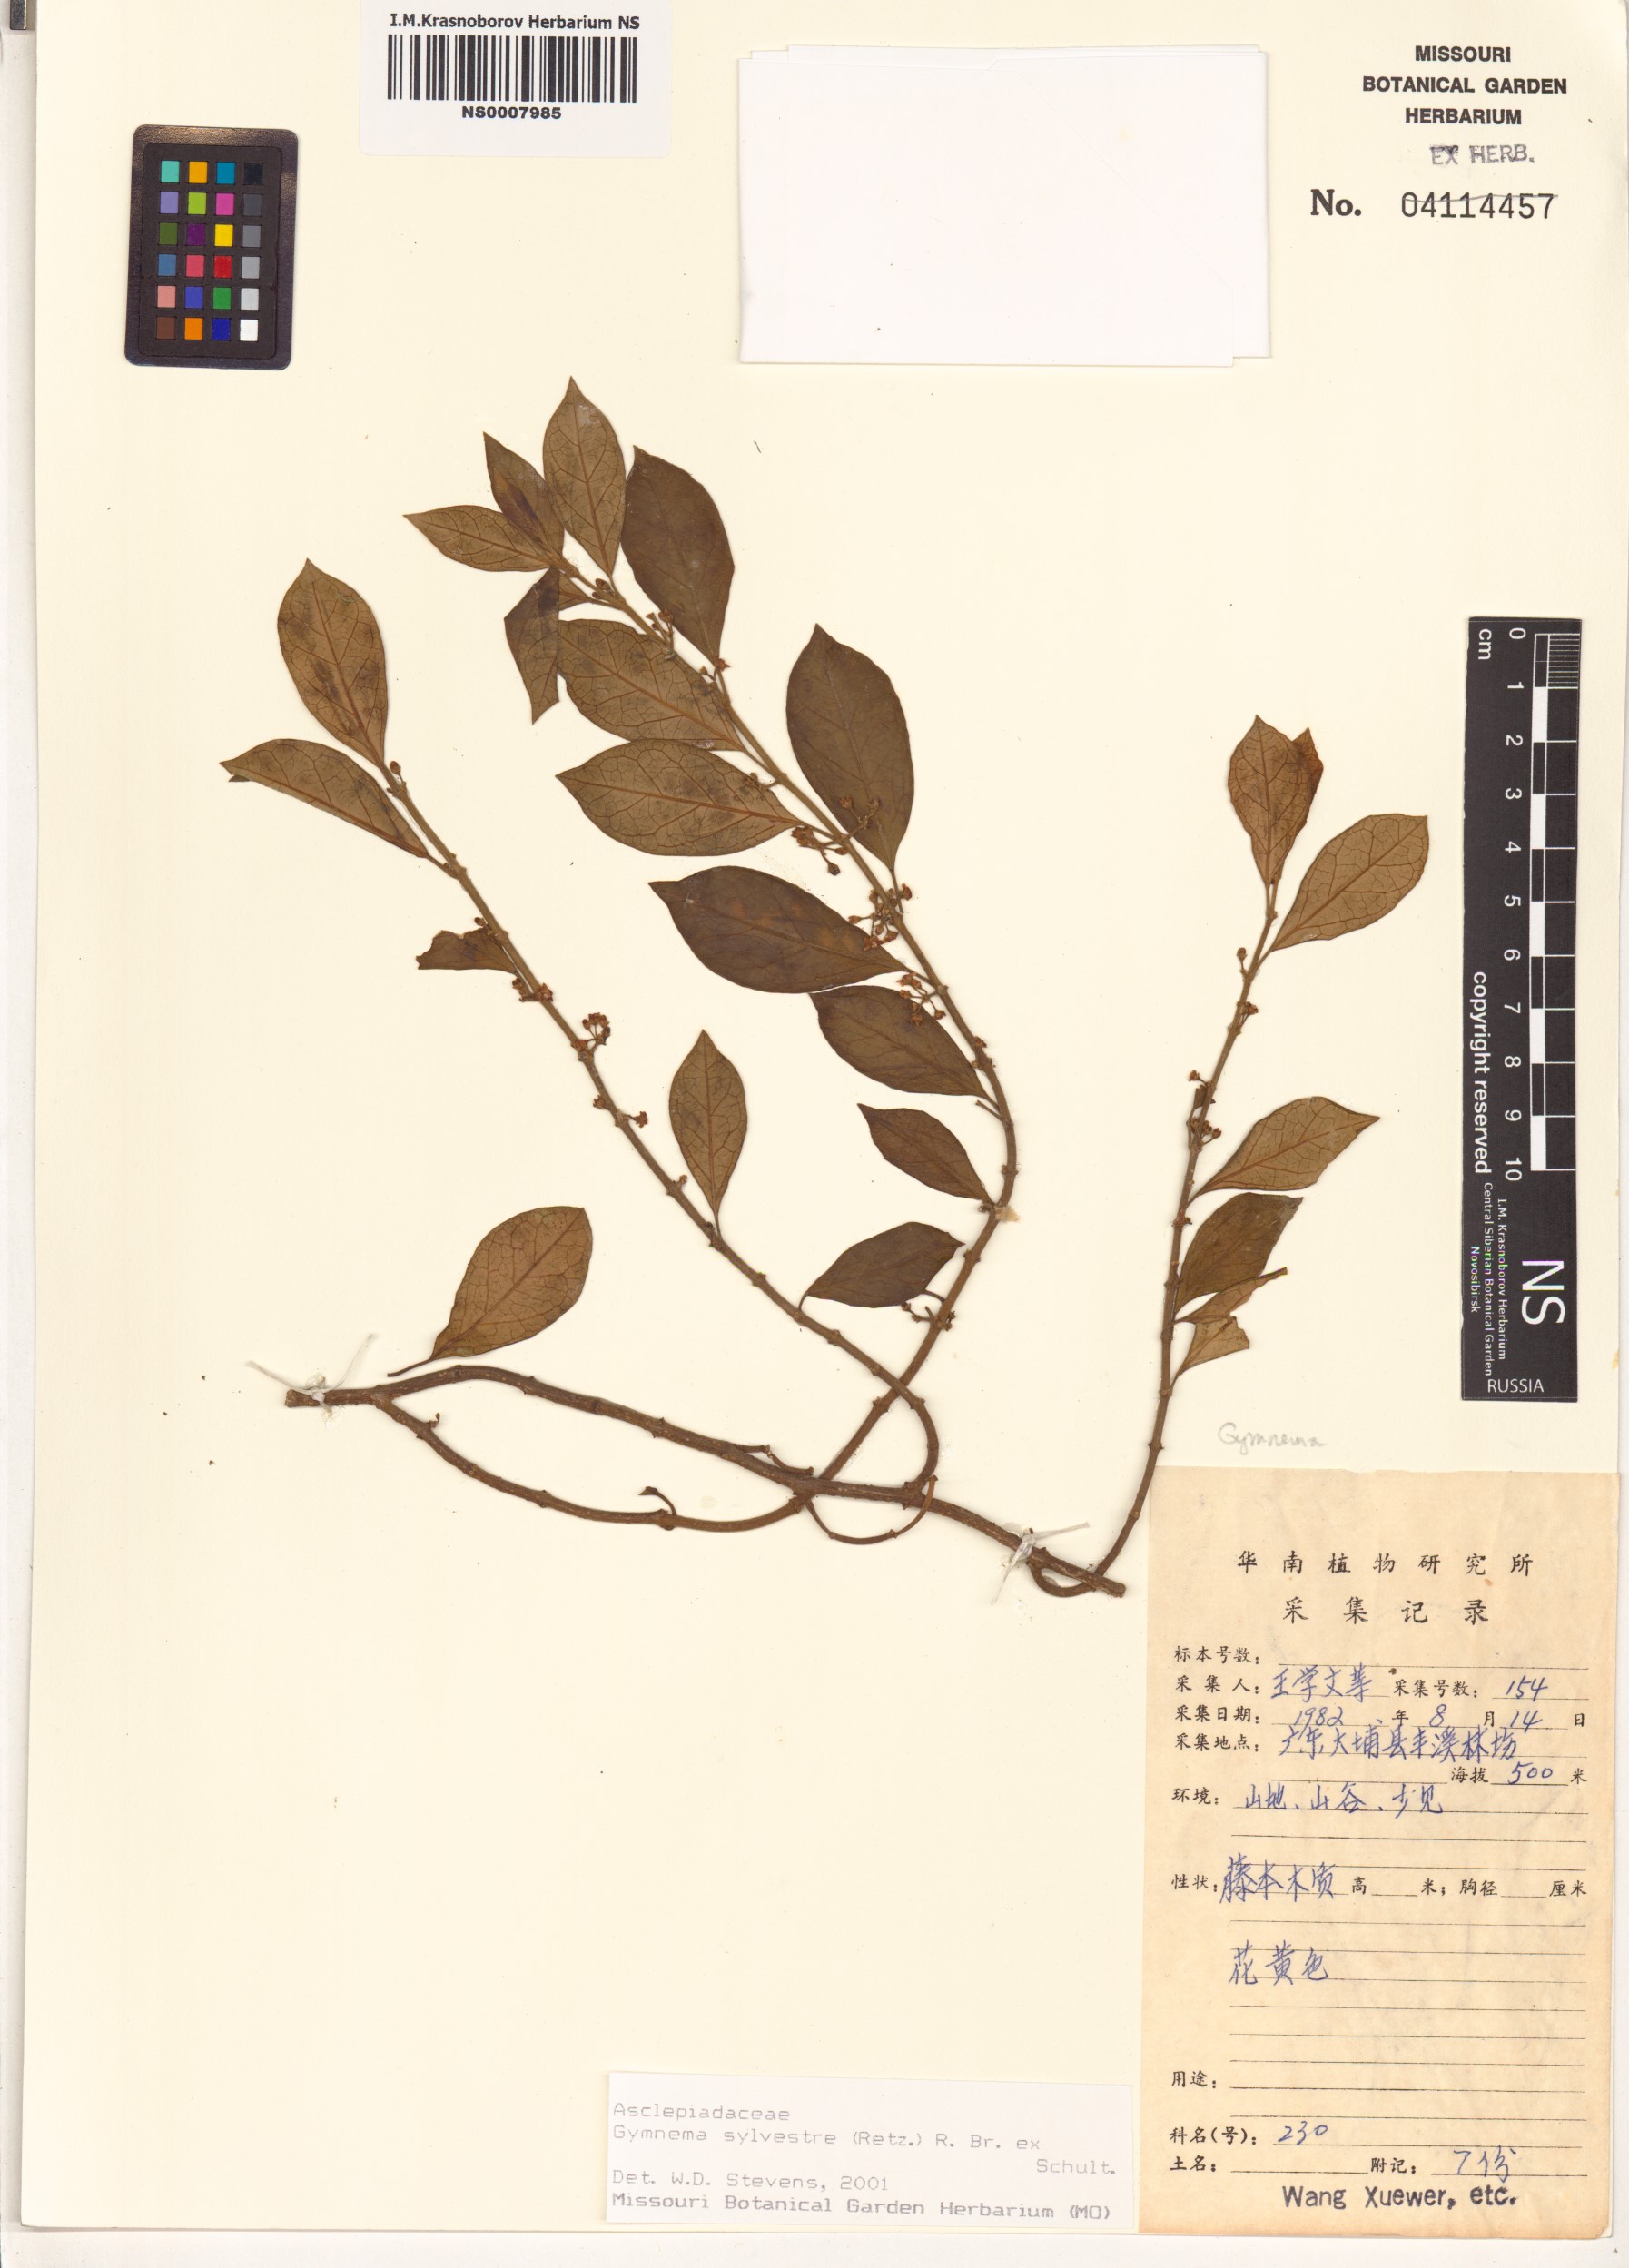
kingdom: Plantae
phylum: Tracheophyta
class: Magnoliopsida
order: Gentianales
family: Apocynaceae
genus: Gymnema
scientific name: Gymnema sylvestre
